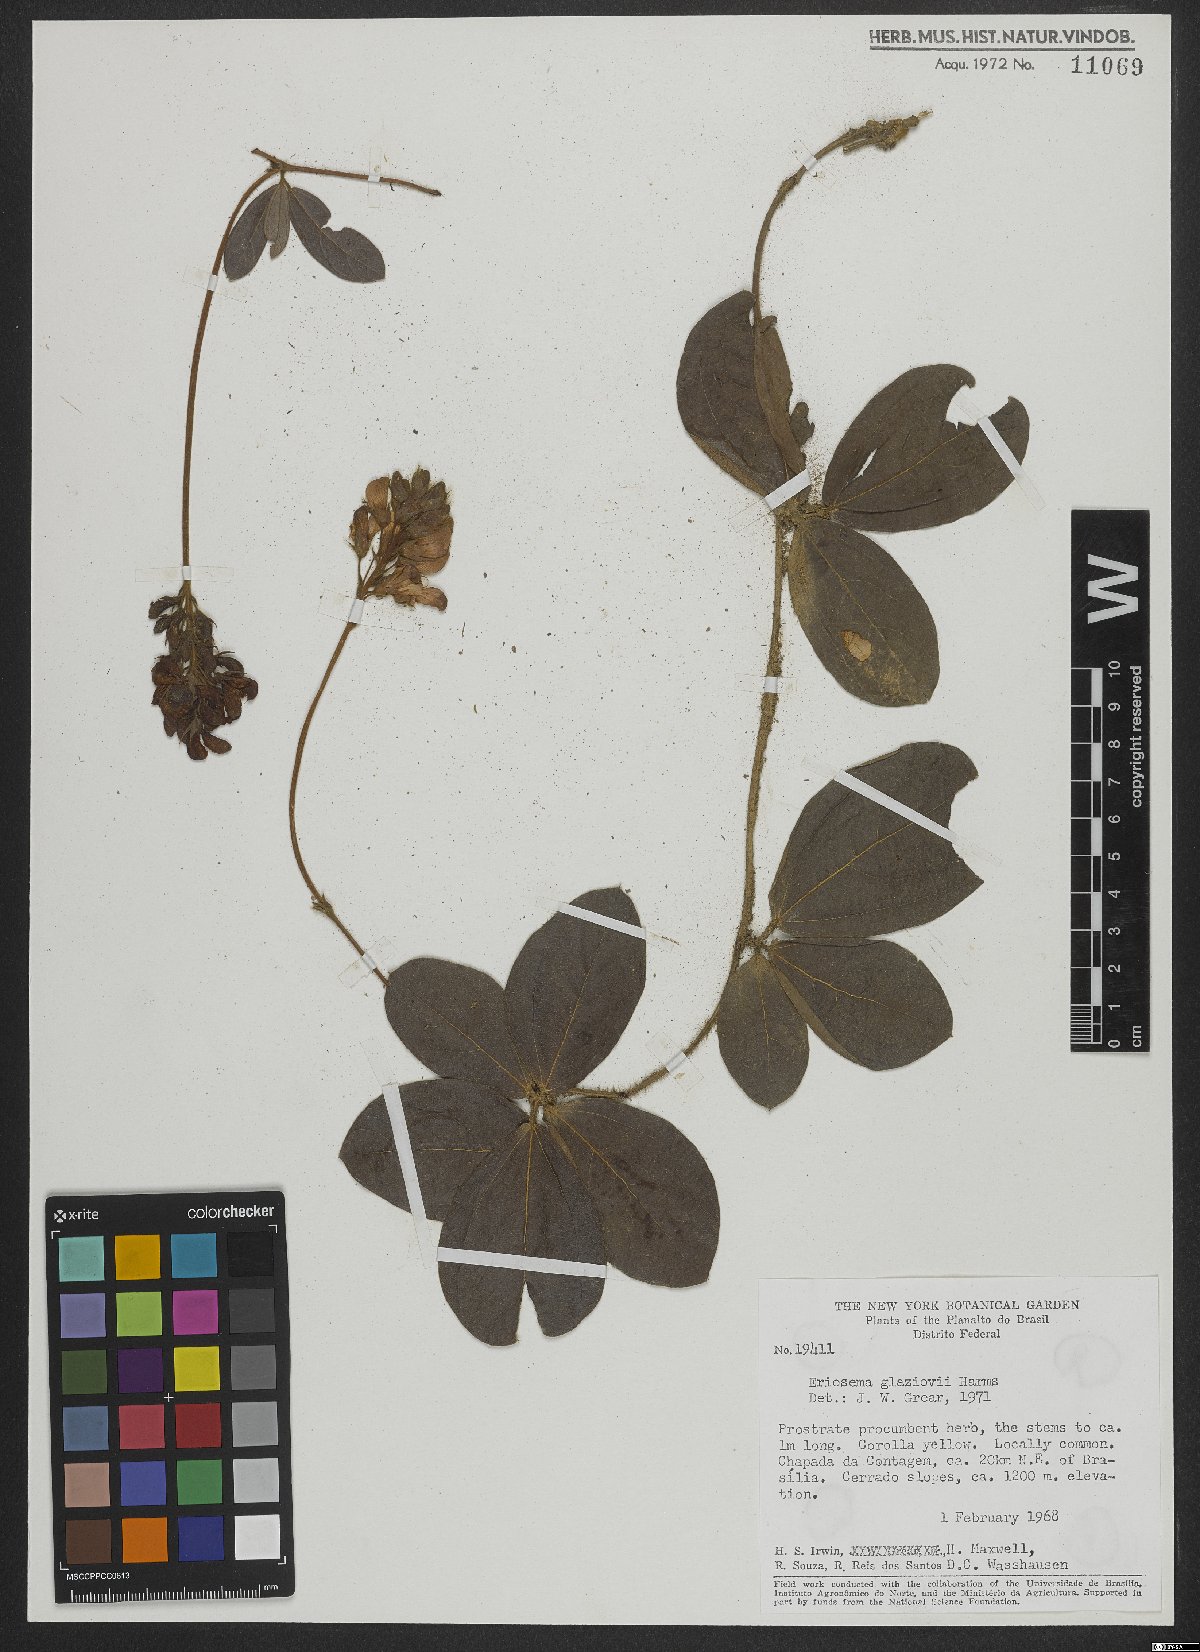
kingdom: Plantae
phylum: Tracheophyta
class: Magnoliopsida
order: Fabales
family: Fabaceae
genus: Eriosema
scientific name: Eriosema glaziovii
